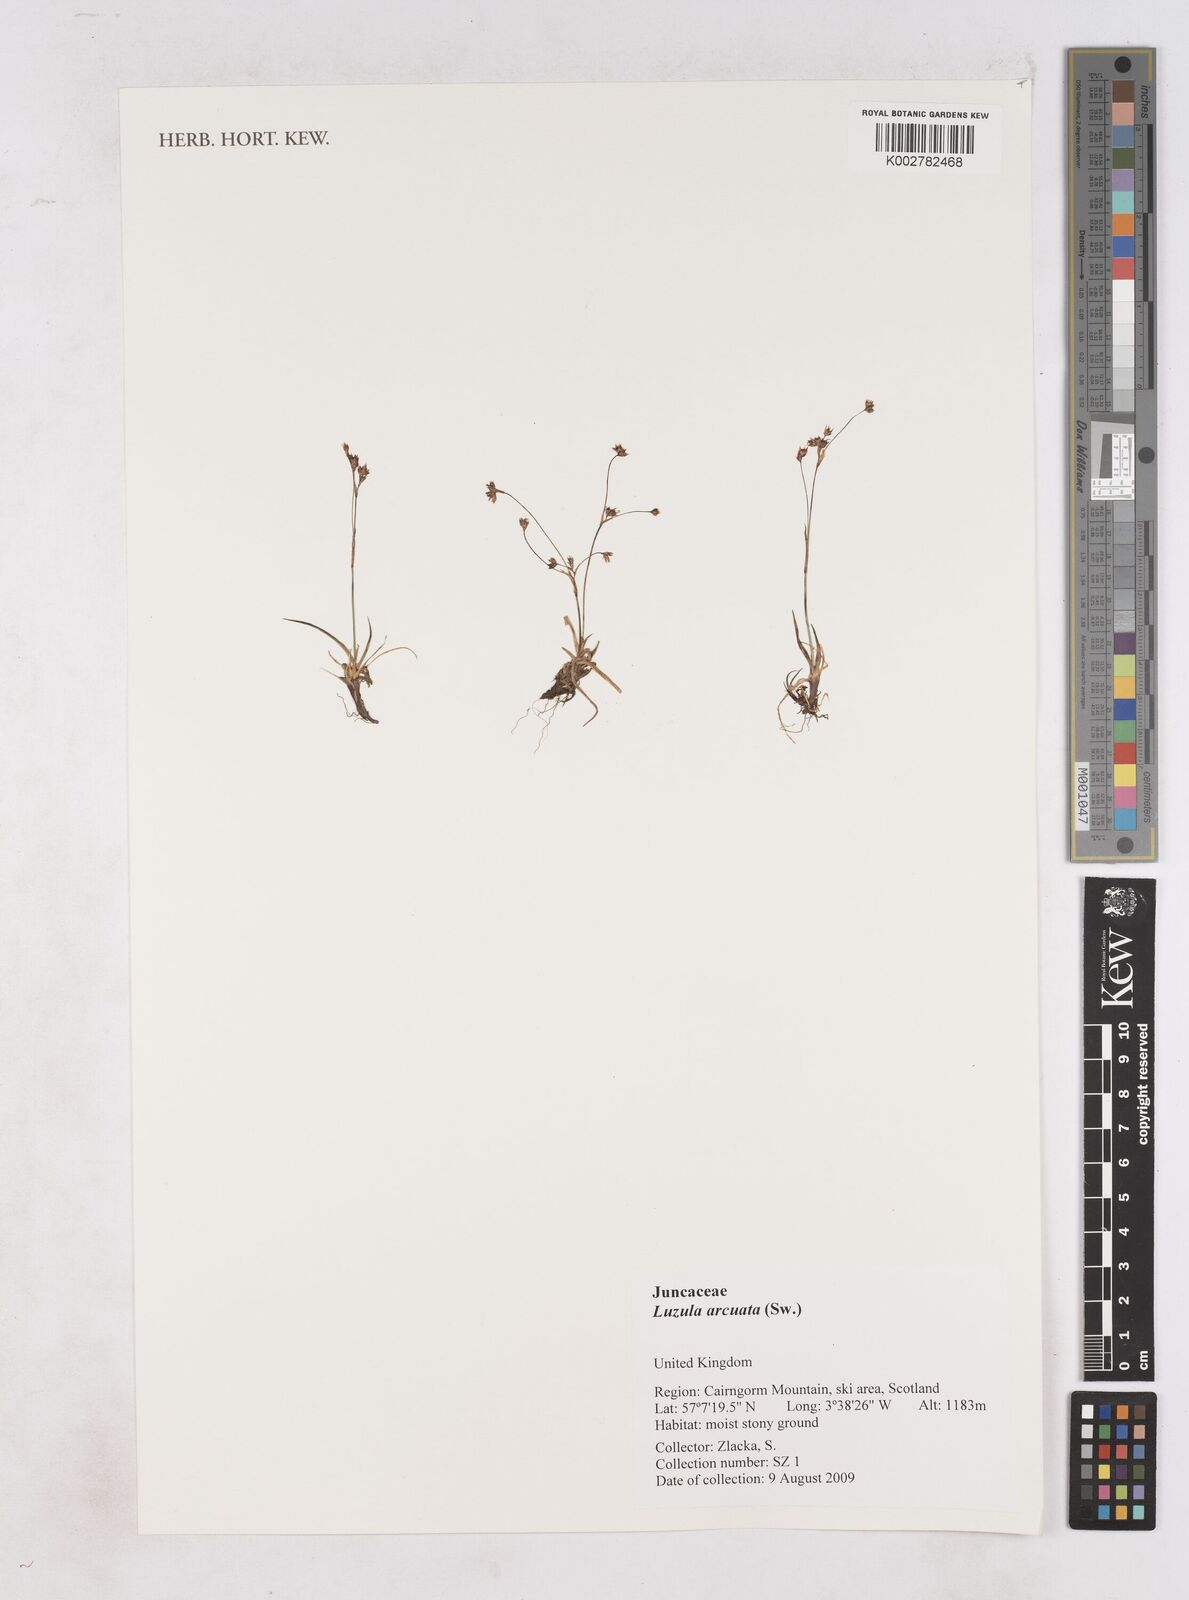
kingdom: Plantae
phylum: Tracheophyta
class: Liliopsida
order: Poales
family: Juncaceae
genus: Luzula
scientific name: Luzula arcuata
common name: Curved wood-rush
